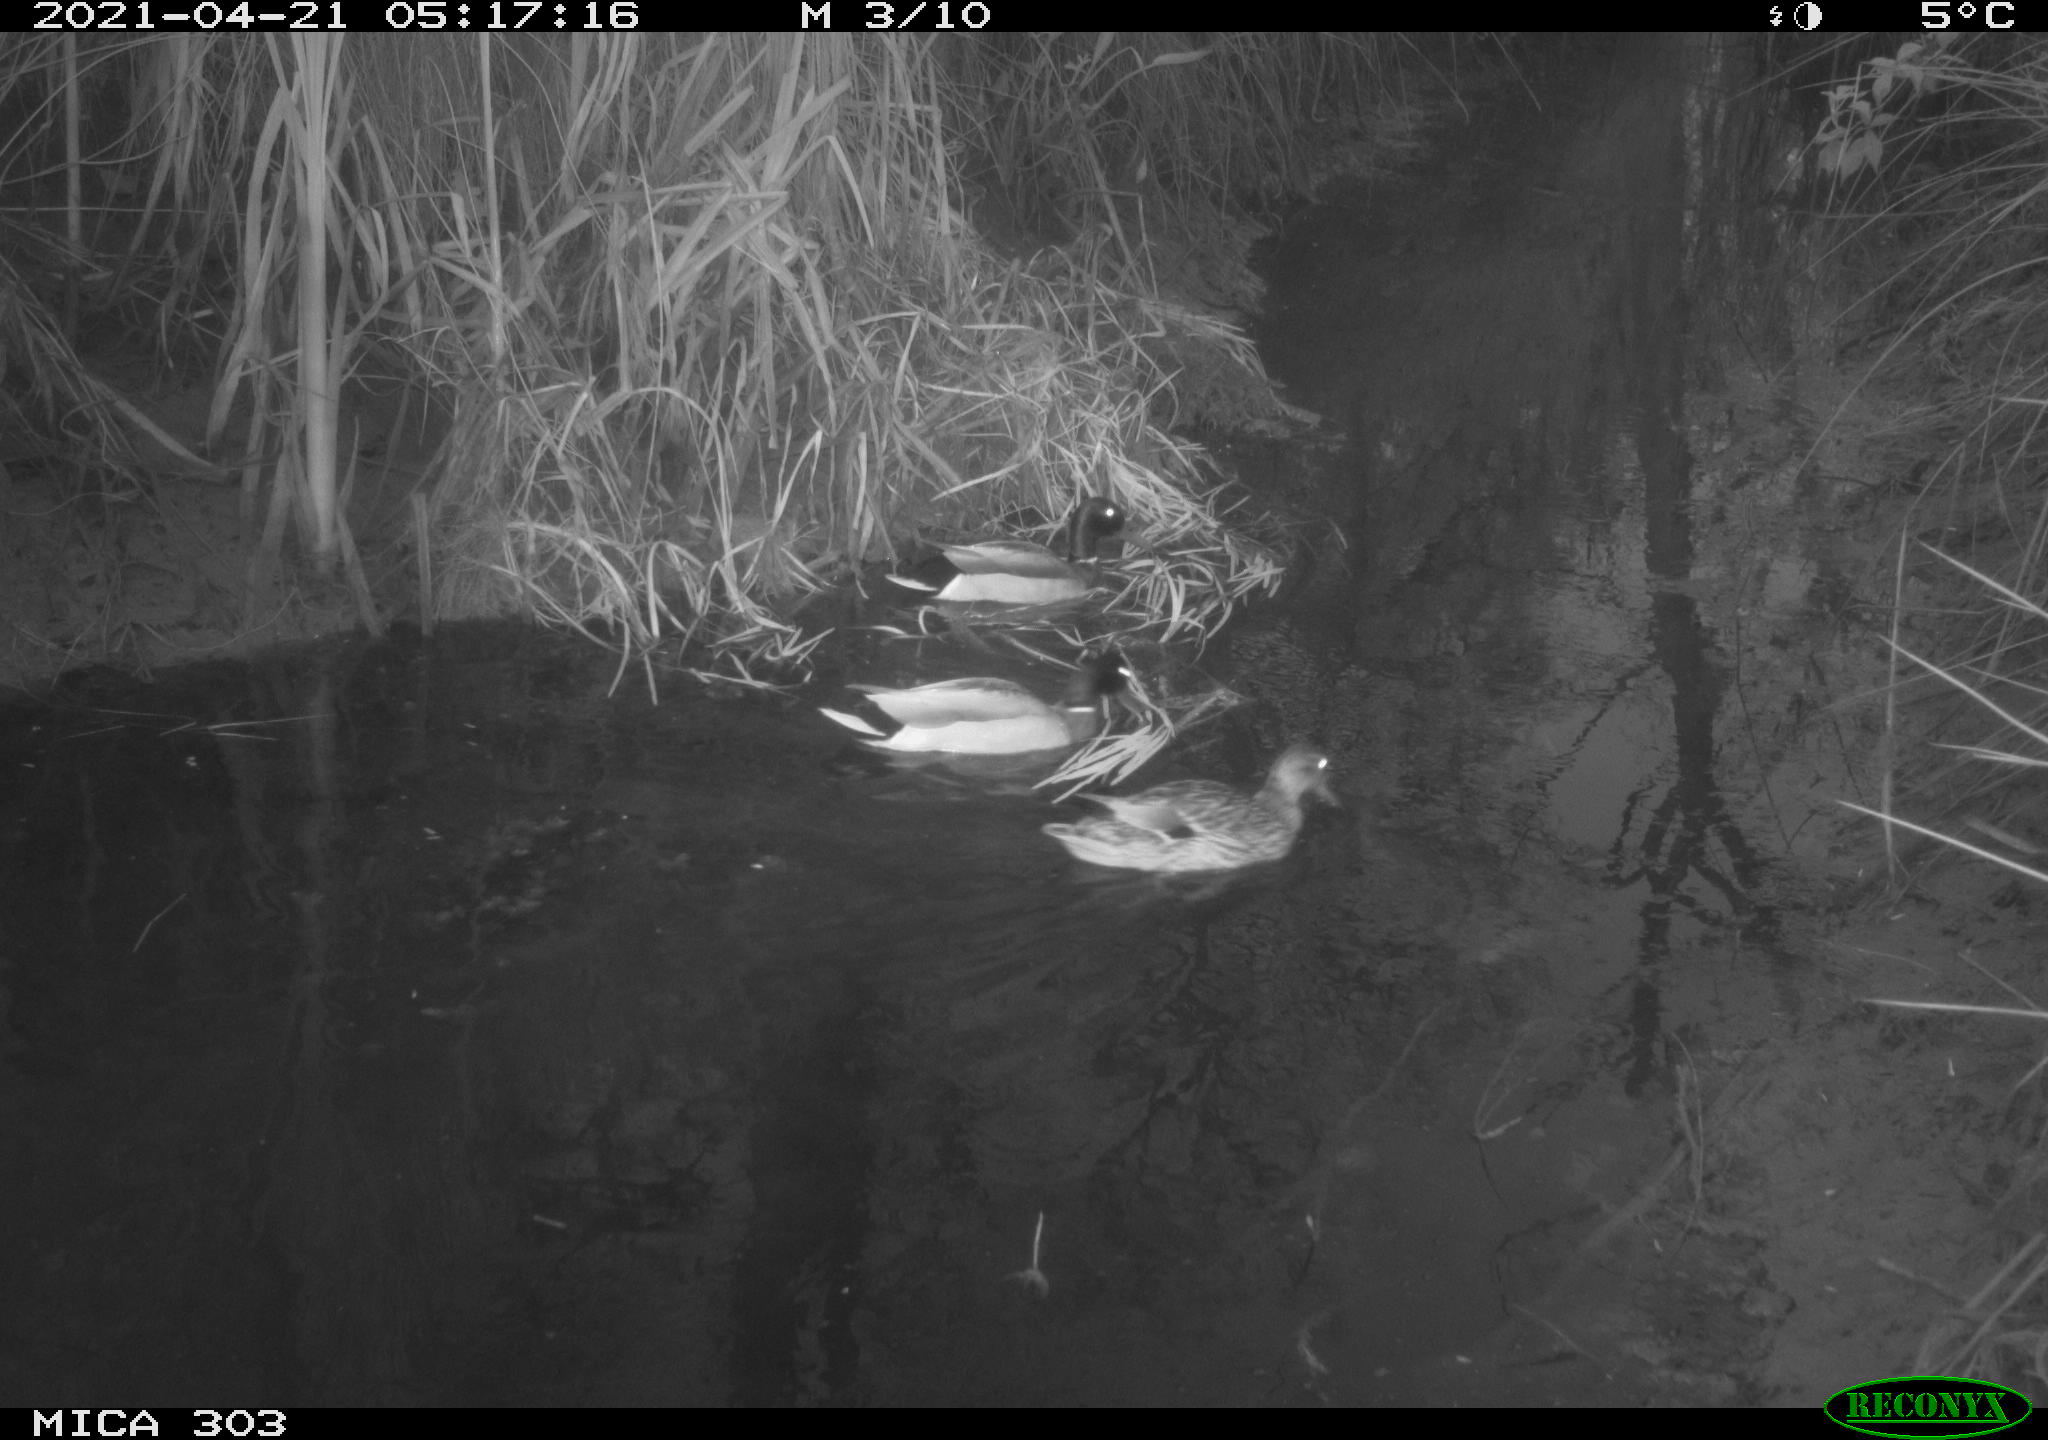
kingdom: Animalia
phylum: Chordata
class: Aves
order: Anseriformes
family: Anatidae
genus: Anas
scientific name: Anas platyrhynchos
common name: Mallard
